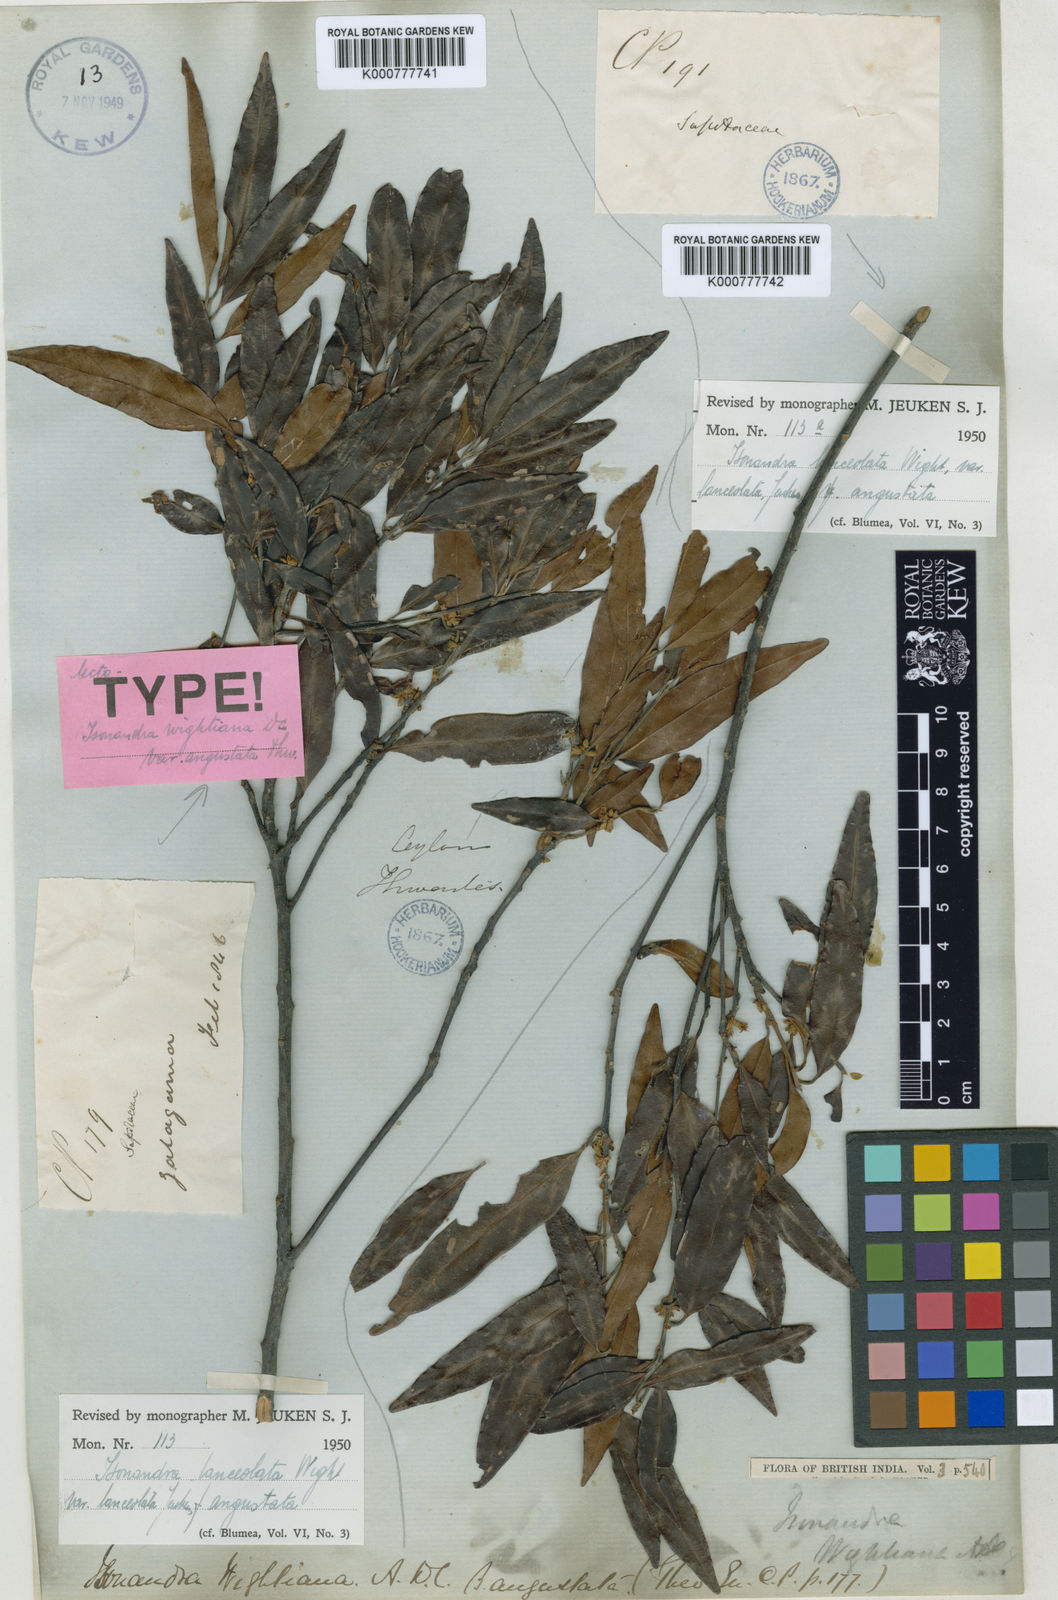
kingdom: Plantae
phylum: Tracheophyta
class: Magnoliopsida
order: Ericales
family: Sapotaceae
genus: Isonandra
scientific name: Isonandra lanceolata
